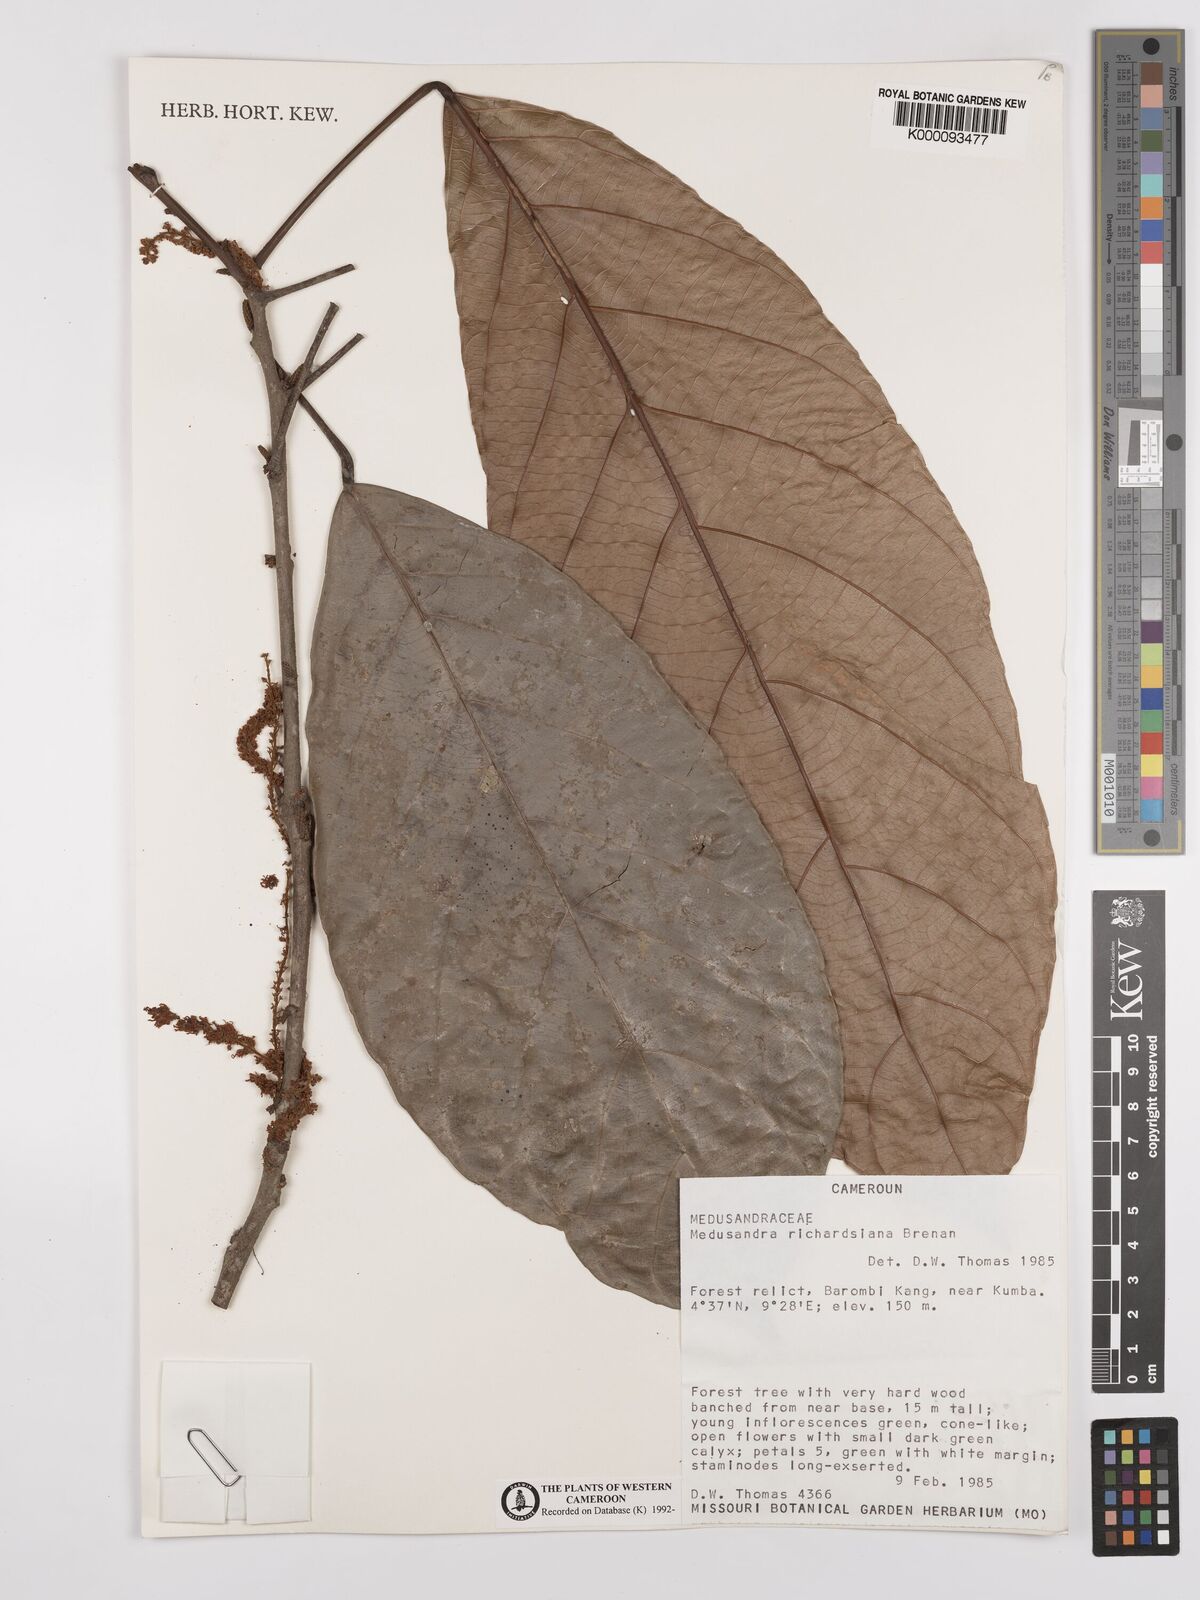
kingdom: Plantae
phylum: Tracheophyta
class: Magnoliopsida
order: Saxifragales
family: Peridiscaceae
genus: Medusandra
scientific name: Medusandra richardsiana
